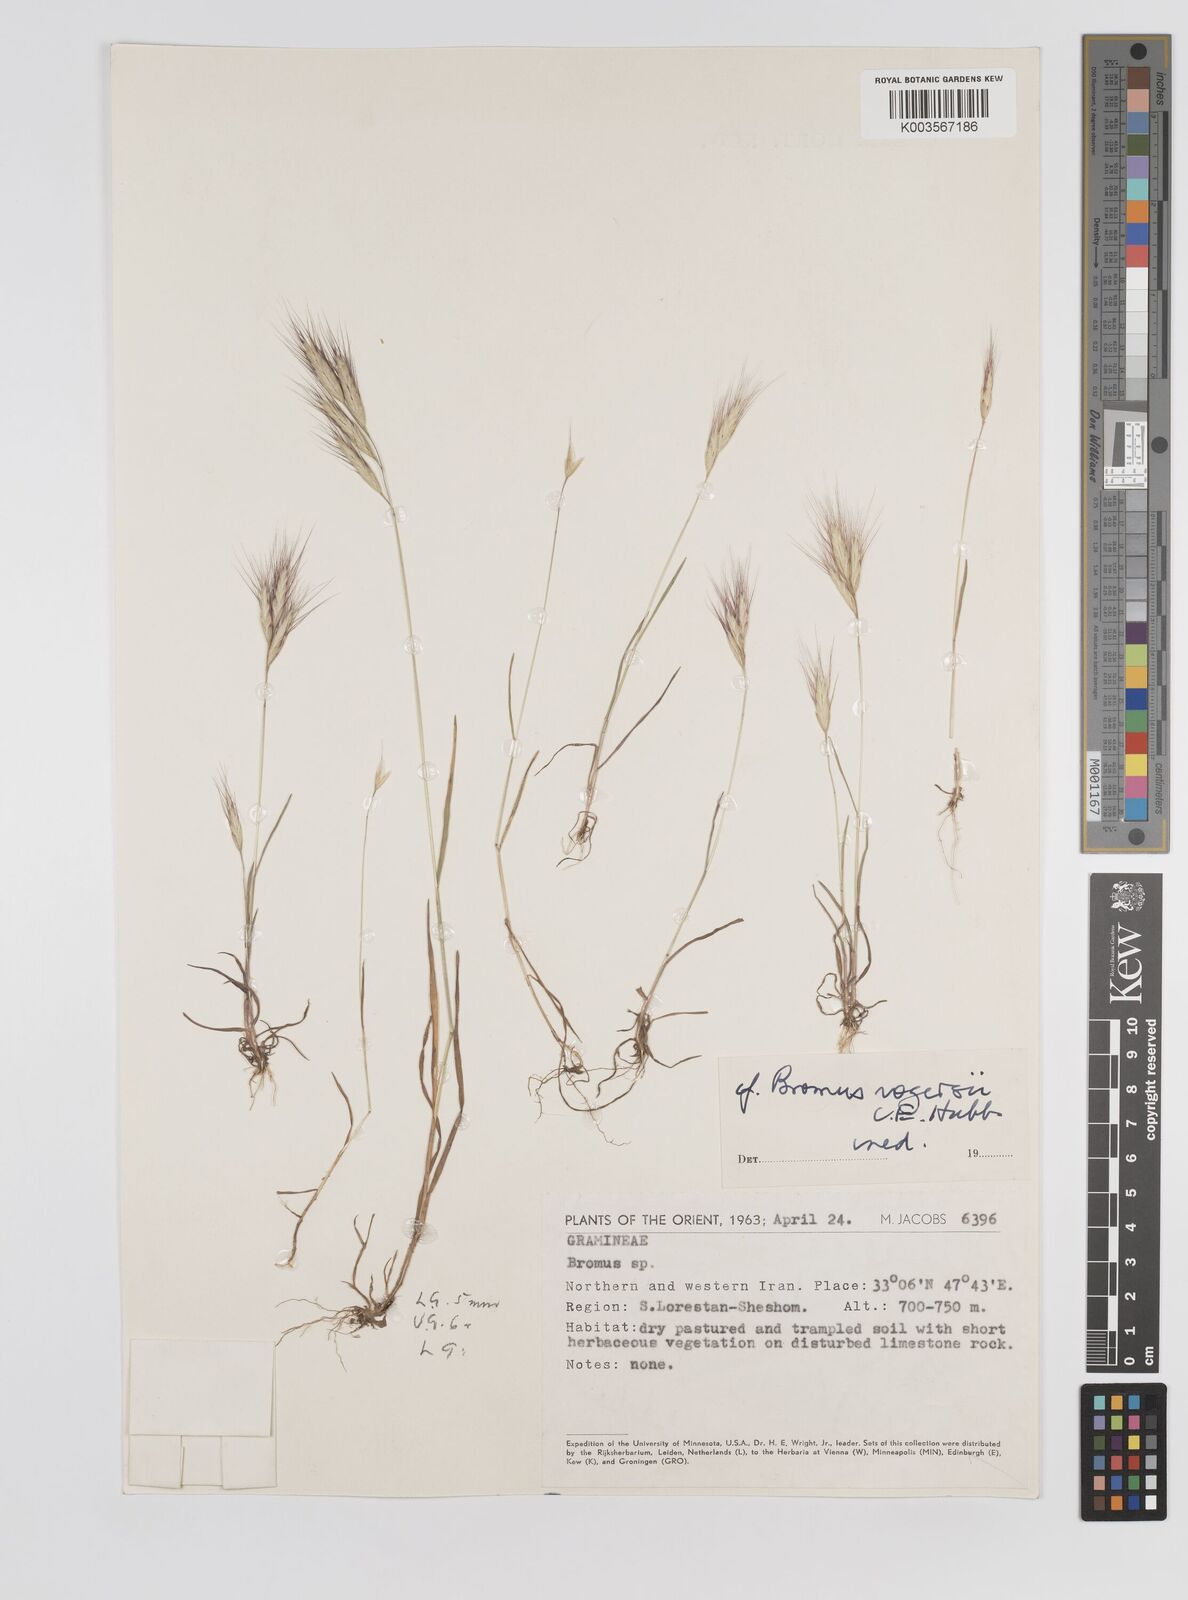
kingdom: Plantae
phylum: Tracheophyta
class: Liliopsida
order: Poales
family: Poaceae
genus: Bromus
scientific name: Bromus danthoniae
